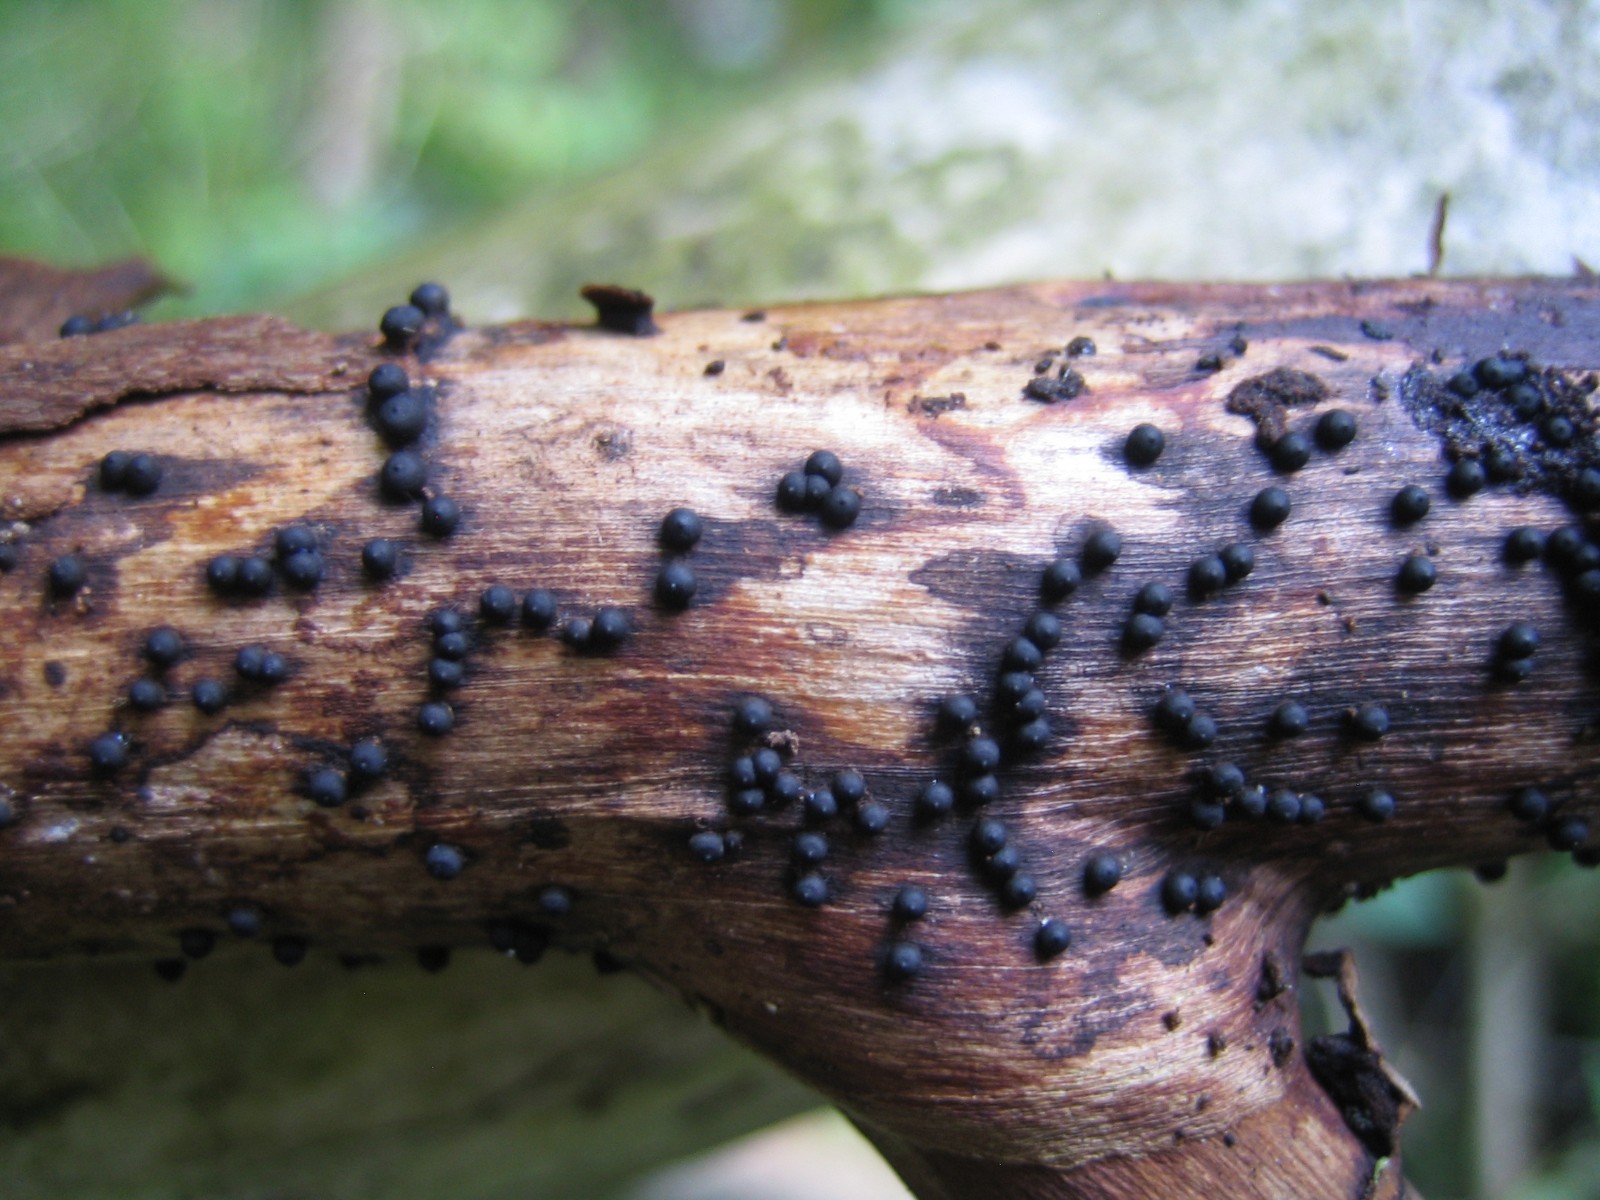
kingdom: Fungi
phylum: Ascomycota
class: Sordariomycetes
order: Xylariales
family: Xylariaceae
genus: Rosellinia
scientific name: Rosellinia
